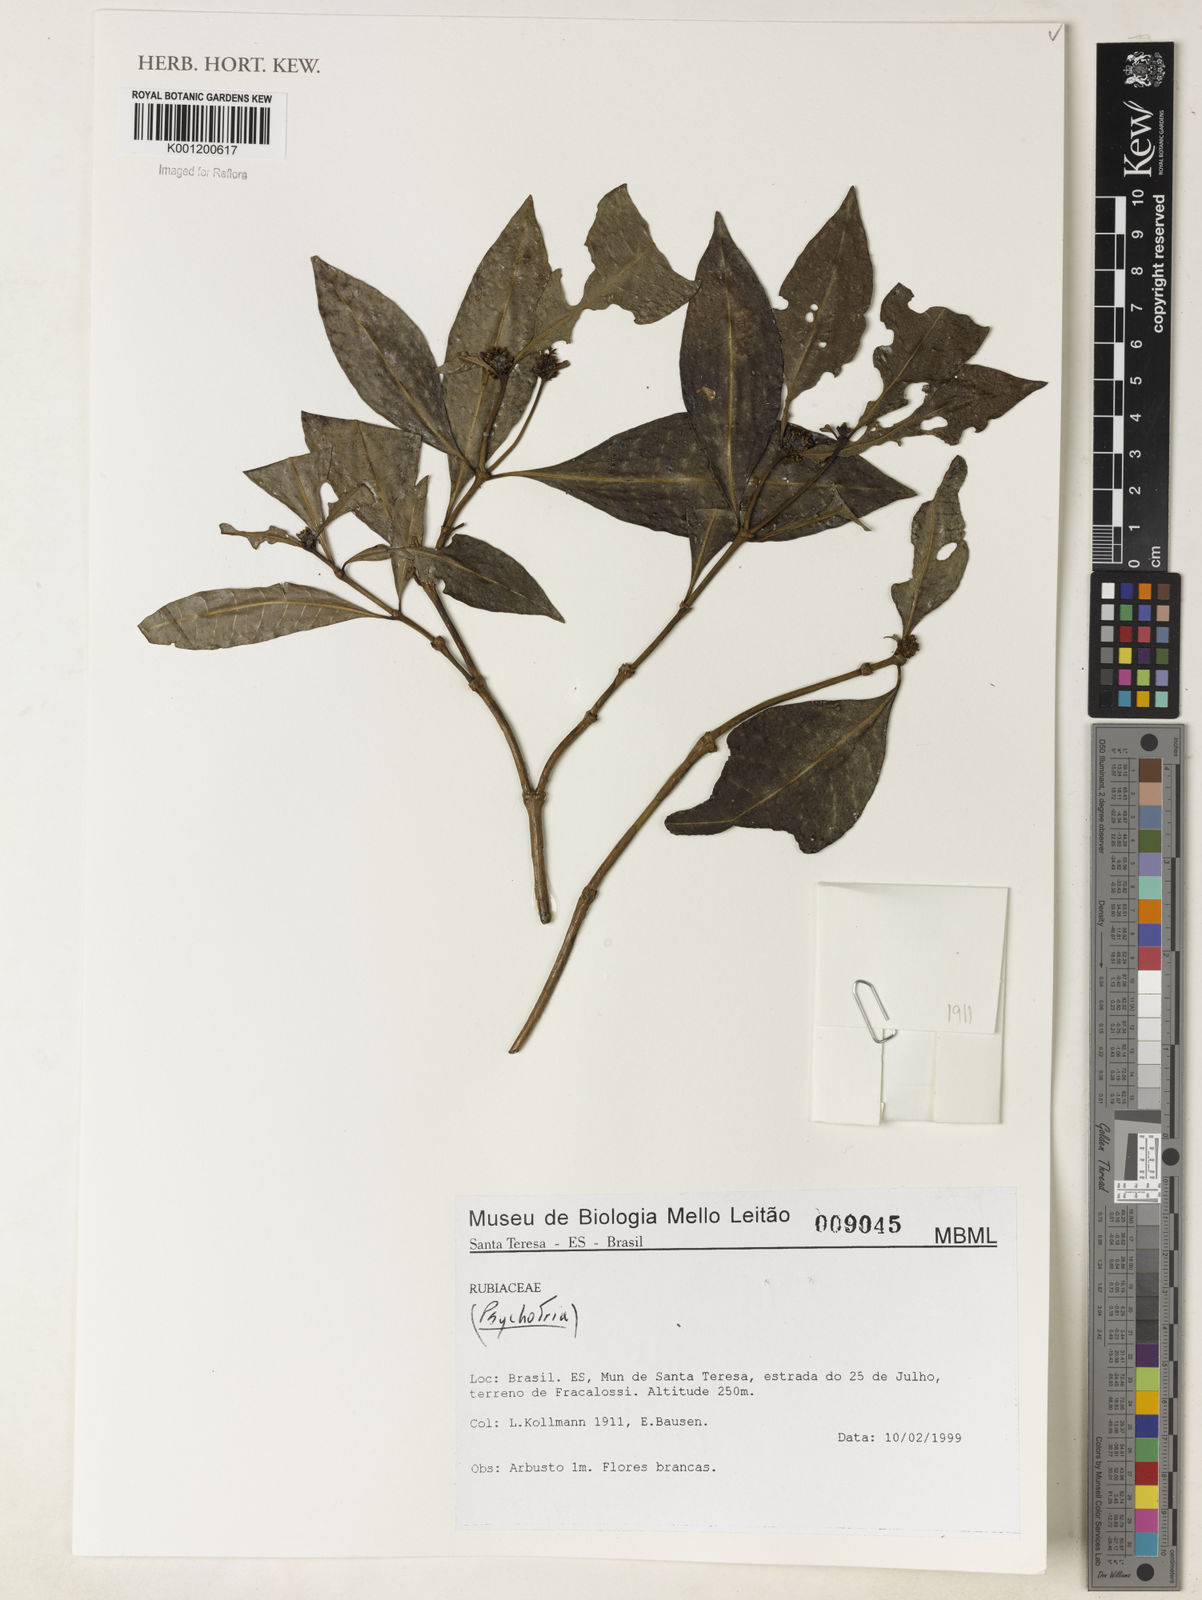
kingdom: Plantae
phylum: Tracheophyta
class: Magnoliopsida
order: Gentianales
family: Rubiaceae
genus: Psychotria
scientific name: Psychotria
